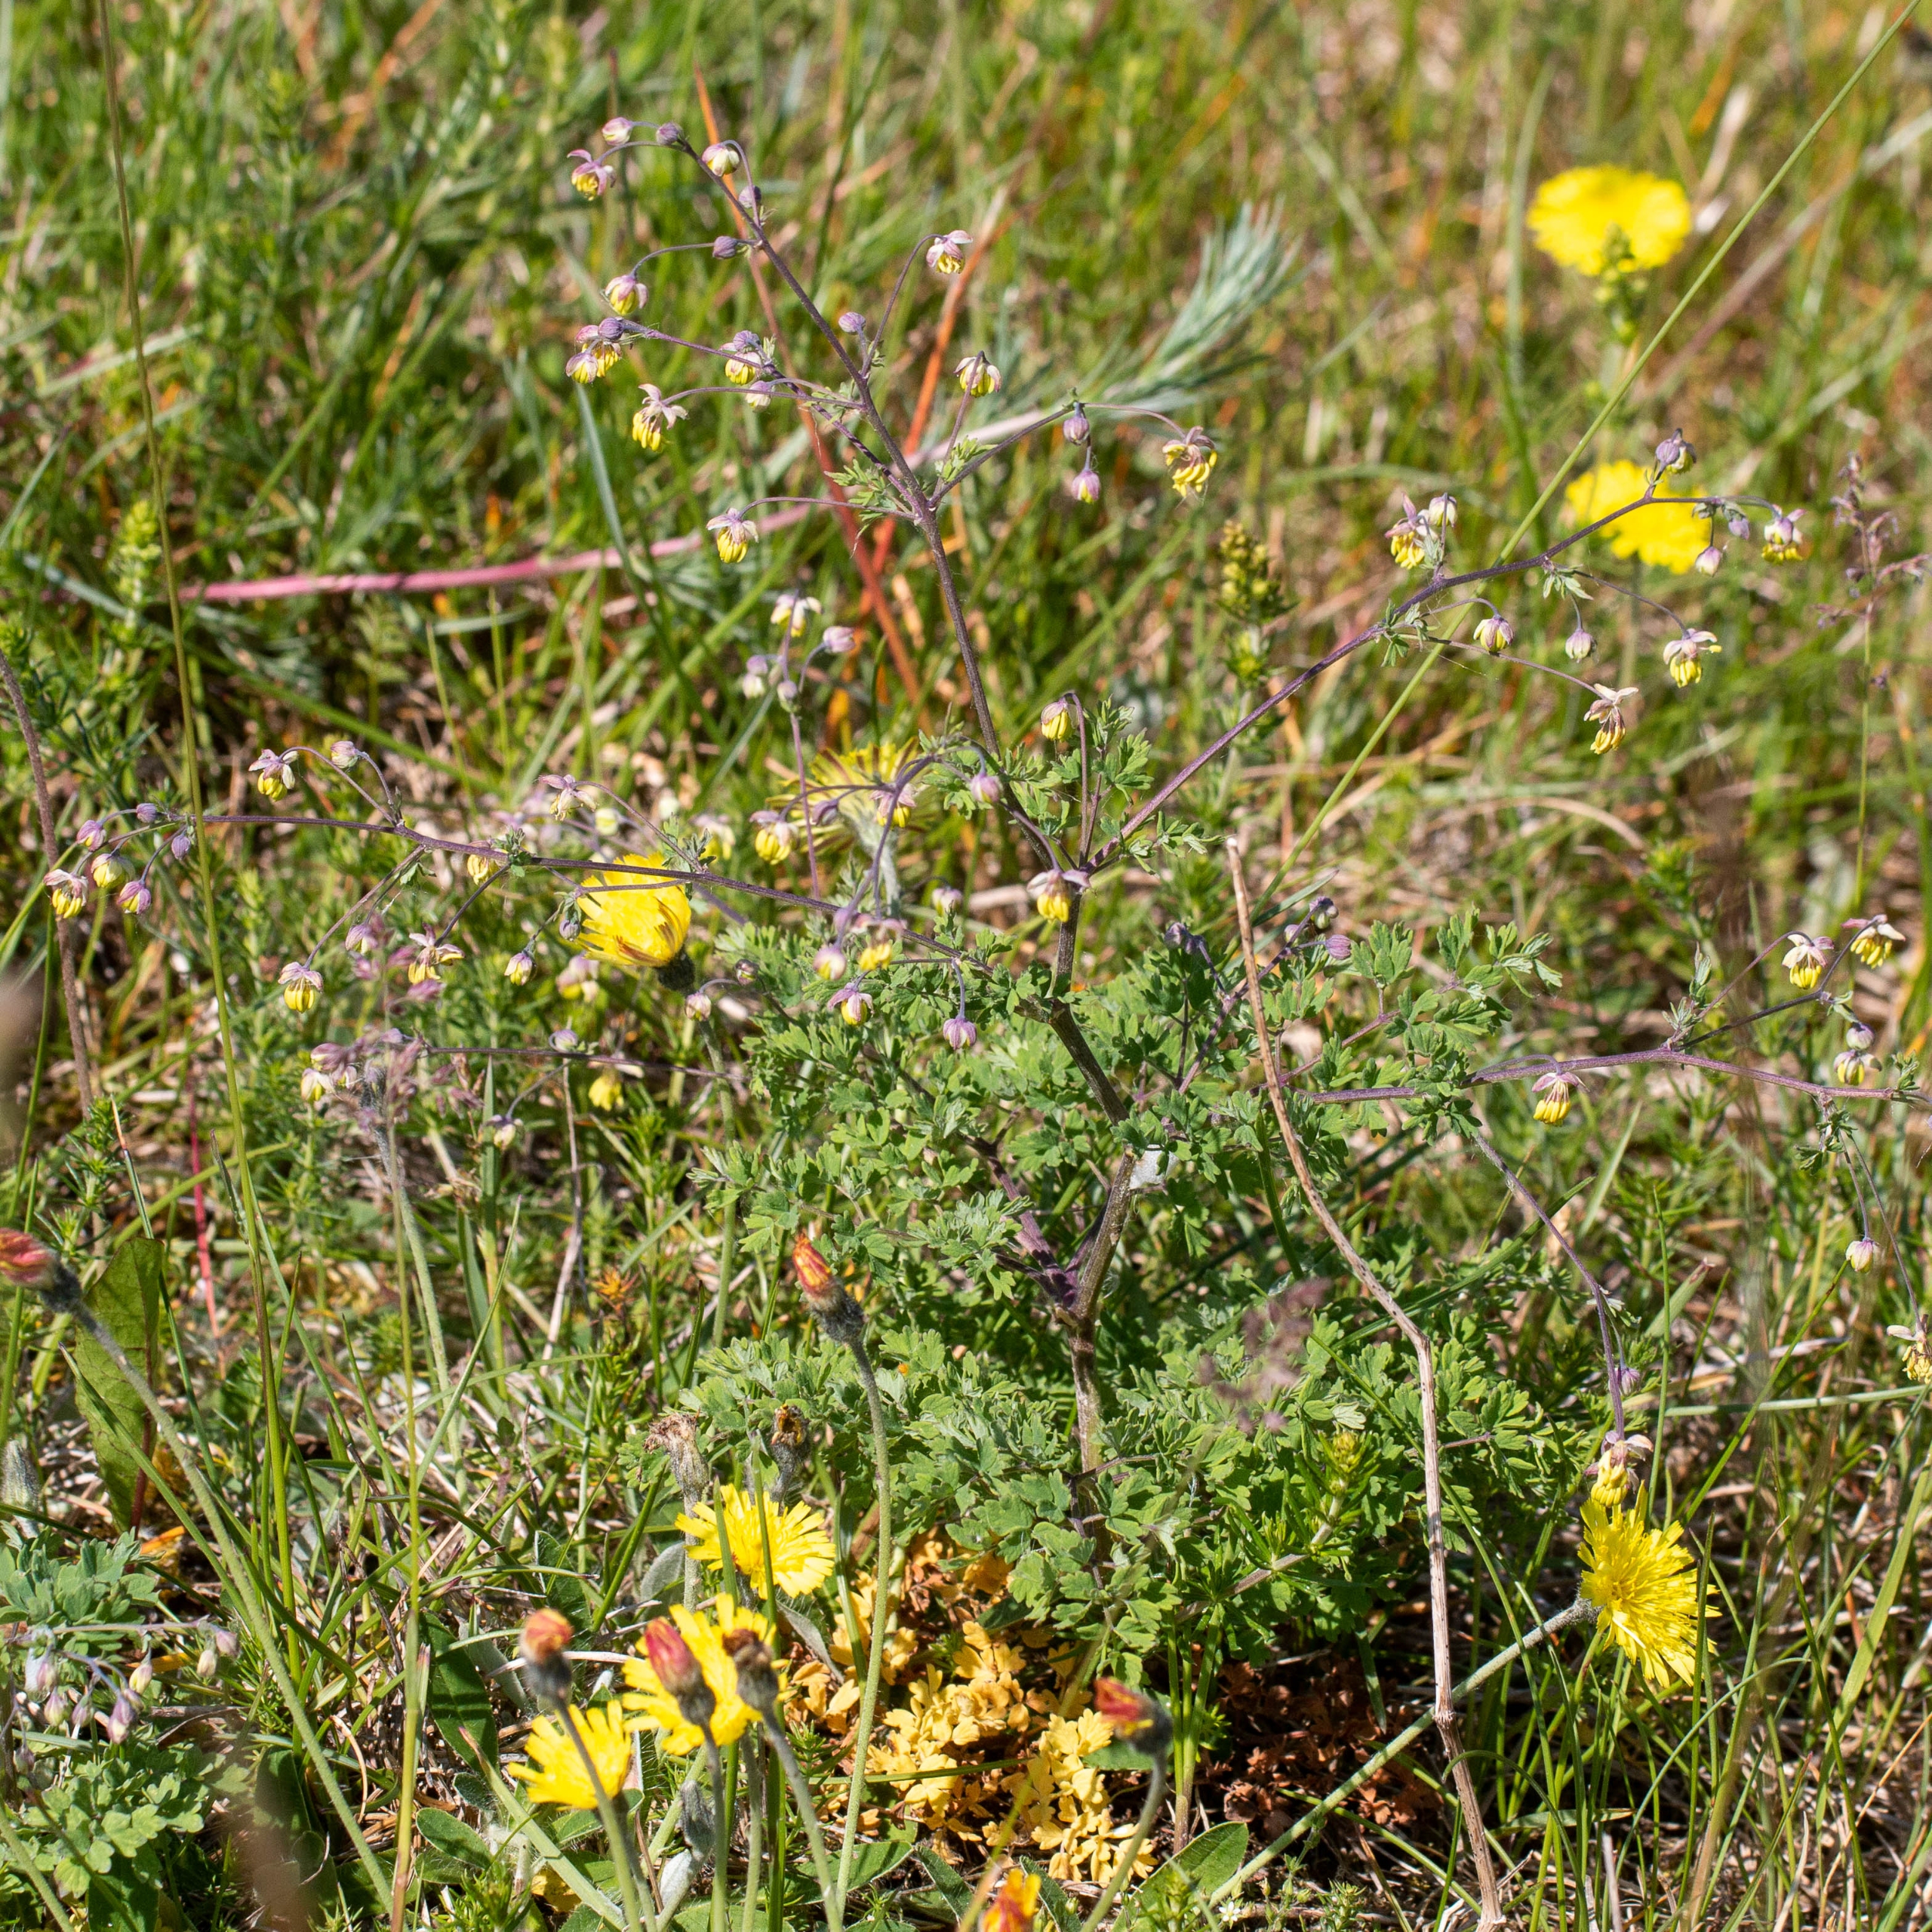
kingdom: Plantae
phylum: Tracheophyta
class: Magnoliopsida
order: Ranunculales
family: Ranunculaceae
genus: Thalictrum
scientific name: Thalictrum minus
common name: Sand-frøstjerne
